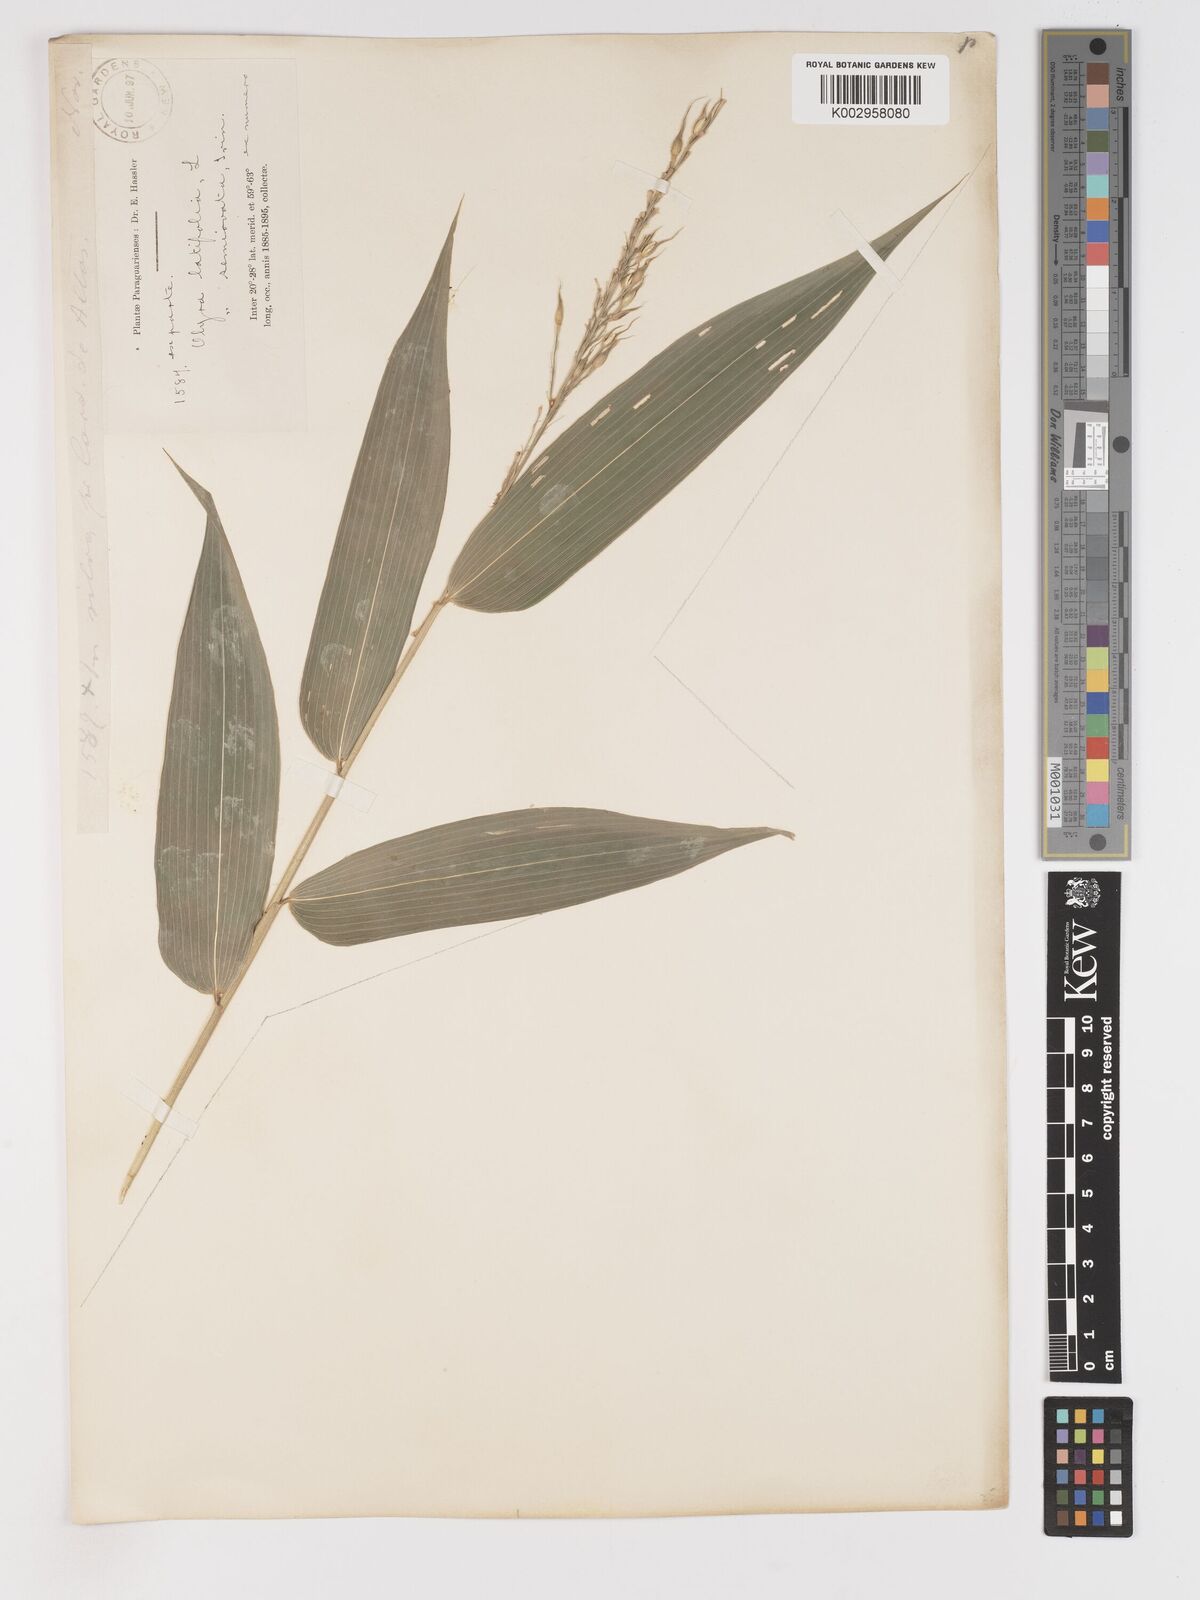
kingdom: Plantae
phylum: Tracheophyta
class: Liliopsida
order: Poales
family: Poaceae
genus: Olyra
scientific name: Olyra latifolia
